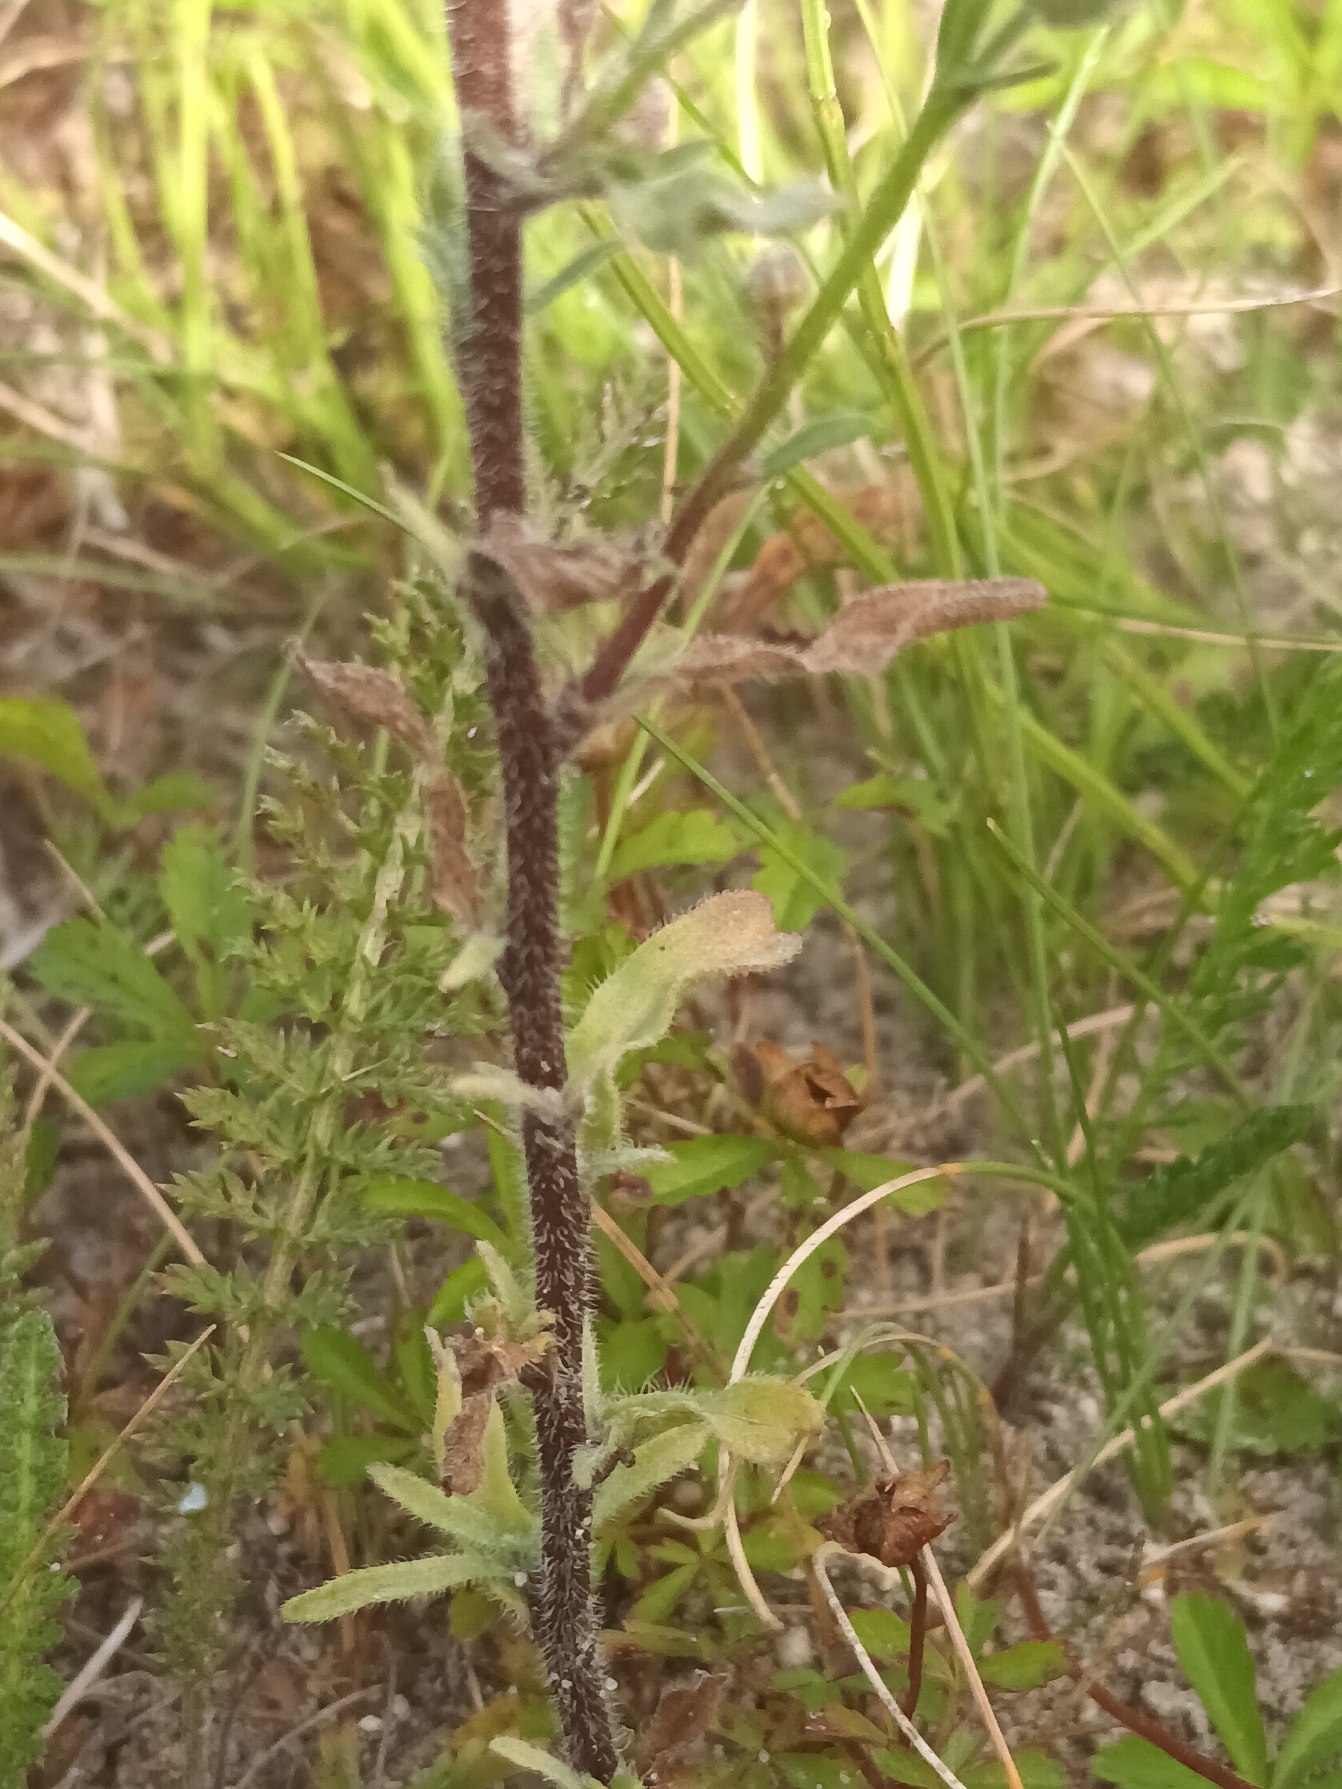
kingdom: Plantae
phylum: Tracheophyta
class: Magnoliopsida
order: Asterales
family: Asteraceae
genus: Erigeron
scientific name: Erigeron muralis
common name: Vreden bakkestjerne
